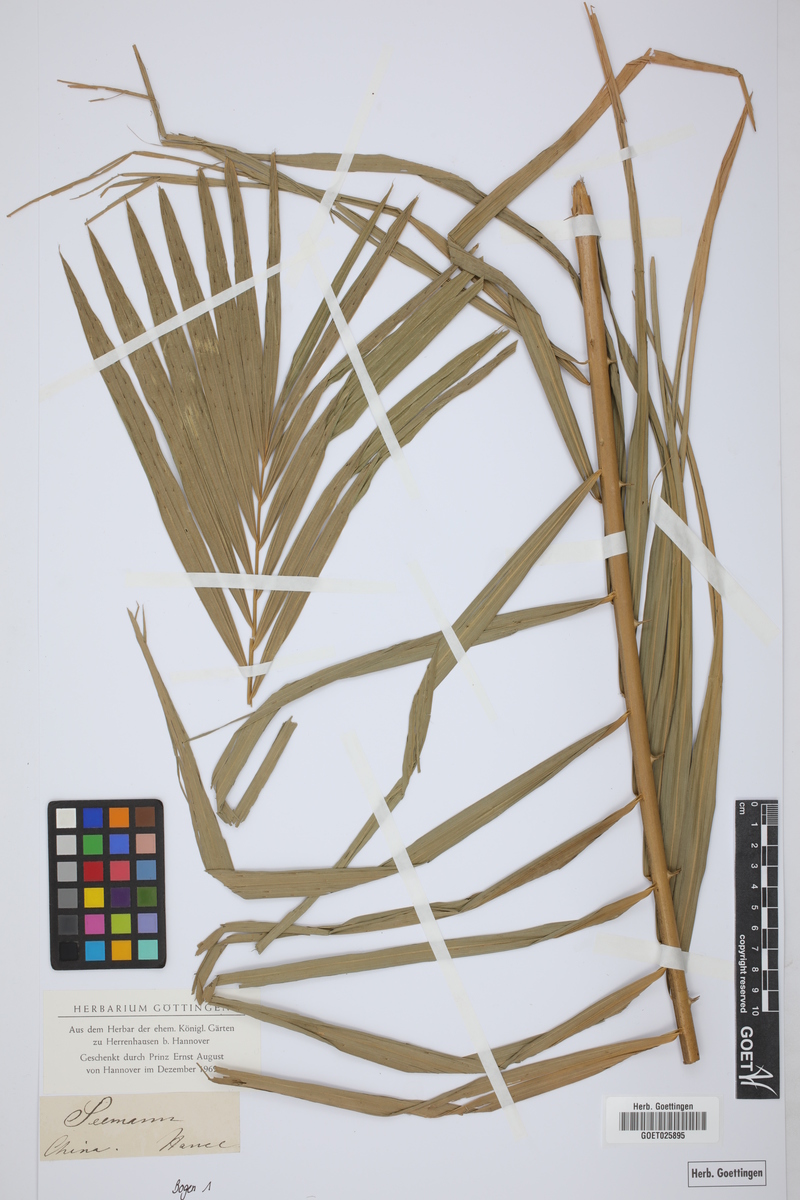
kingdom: Plantae
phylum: Tracheophyta
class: Liliopsida
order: Arecales
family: Arecaceae
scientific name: Arecaceae
